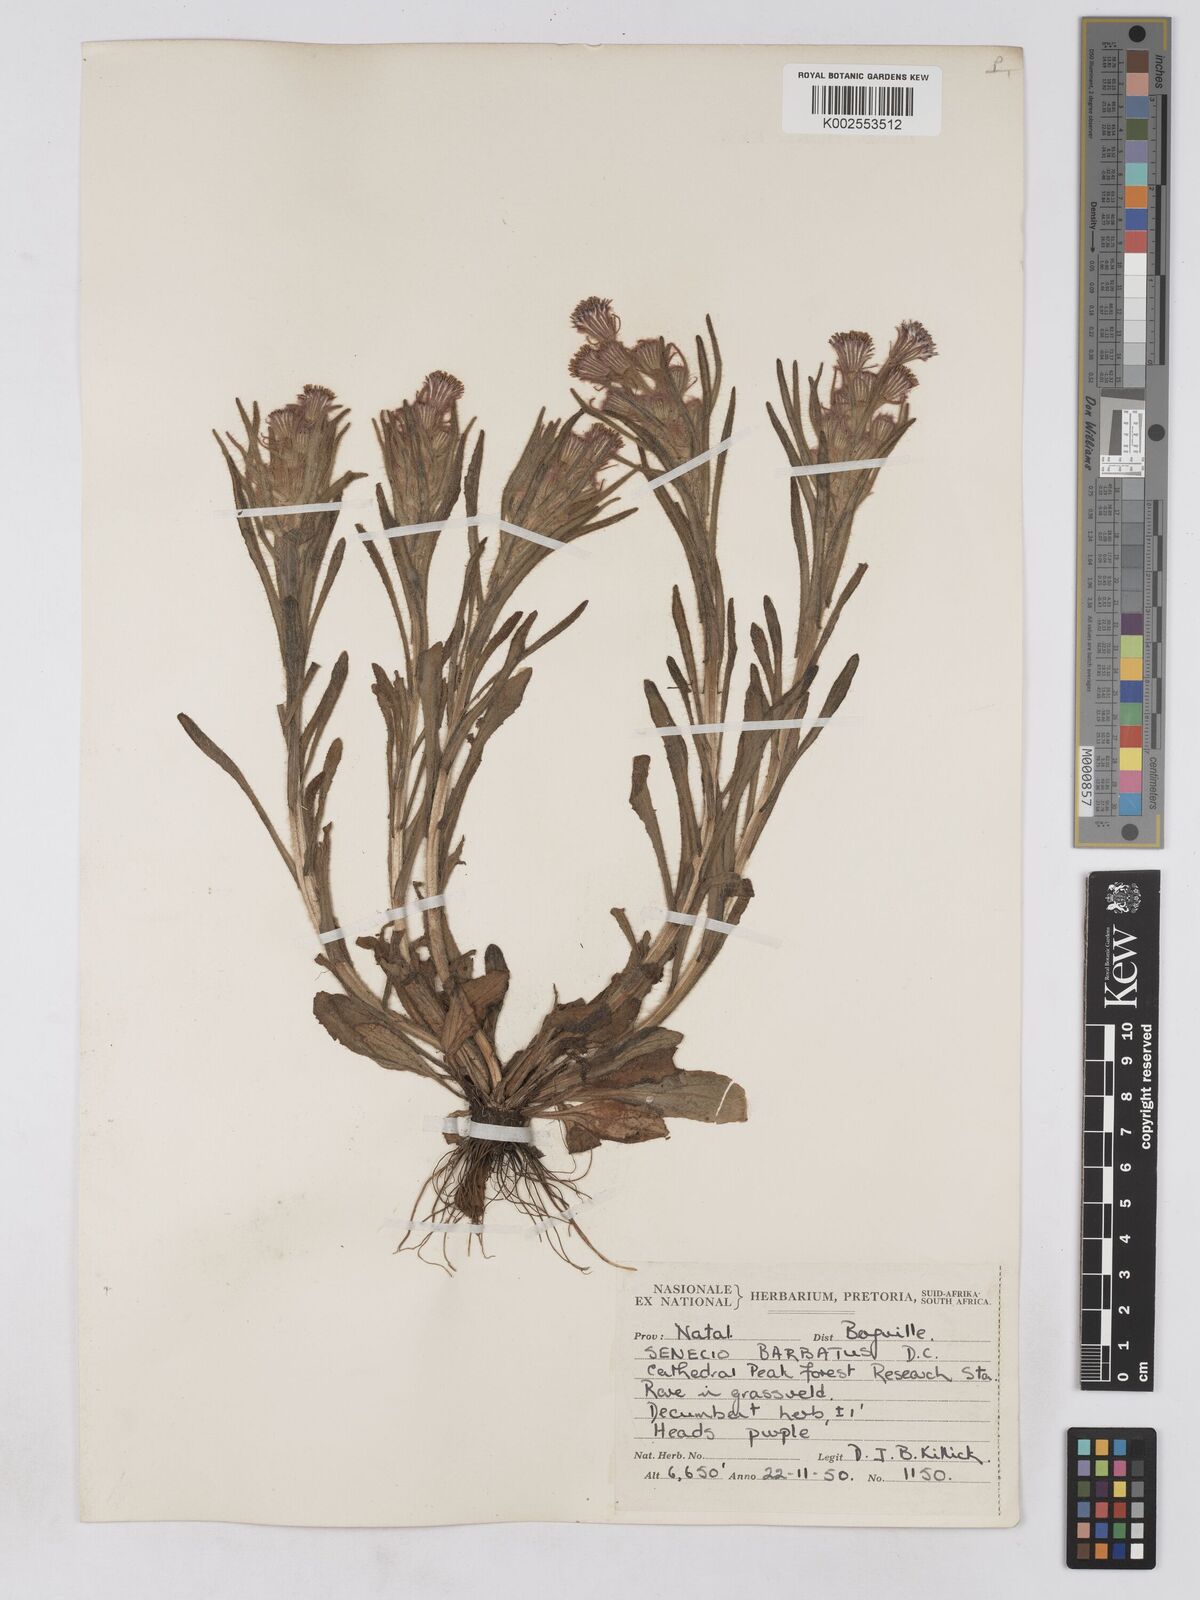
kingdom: Plantae
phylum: Tracheophyta
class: Magnoliopsida
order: Asterales
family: Asteraceae
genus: Senecio
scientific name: Senecio barbatus
